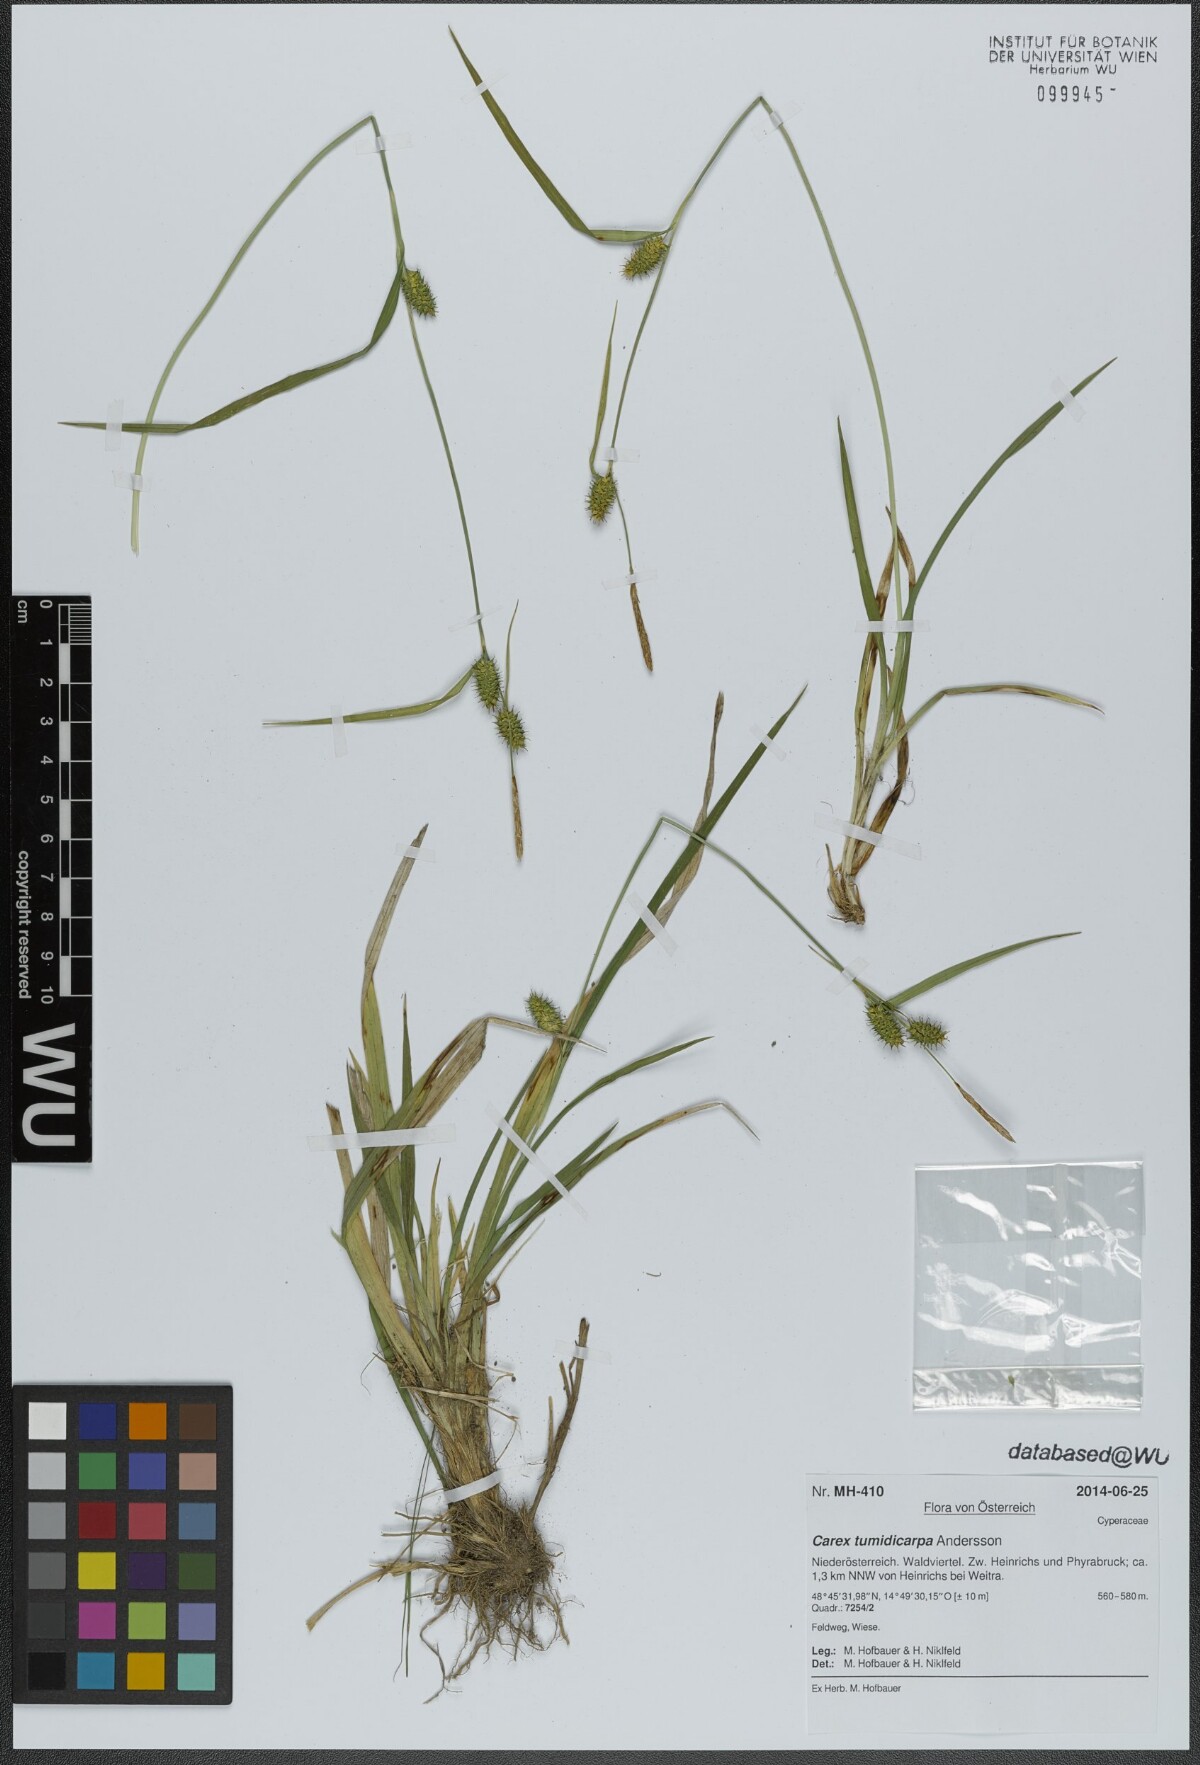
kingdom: Plantae
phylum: Tracheophyta
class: Liliopsida
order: Poales
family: Cyperaceae
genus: Carex
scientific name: Carex demissa
